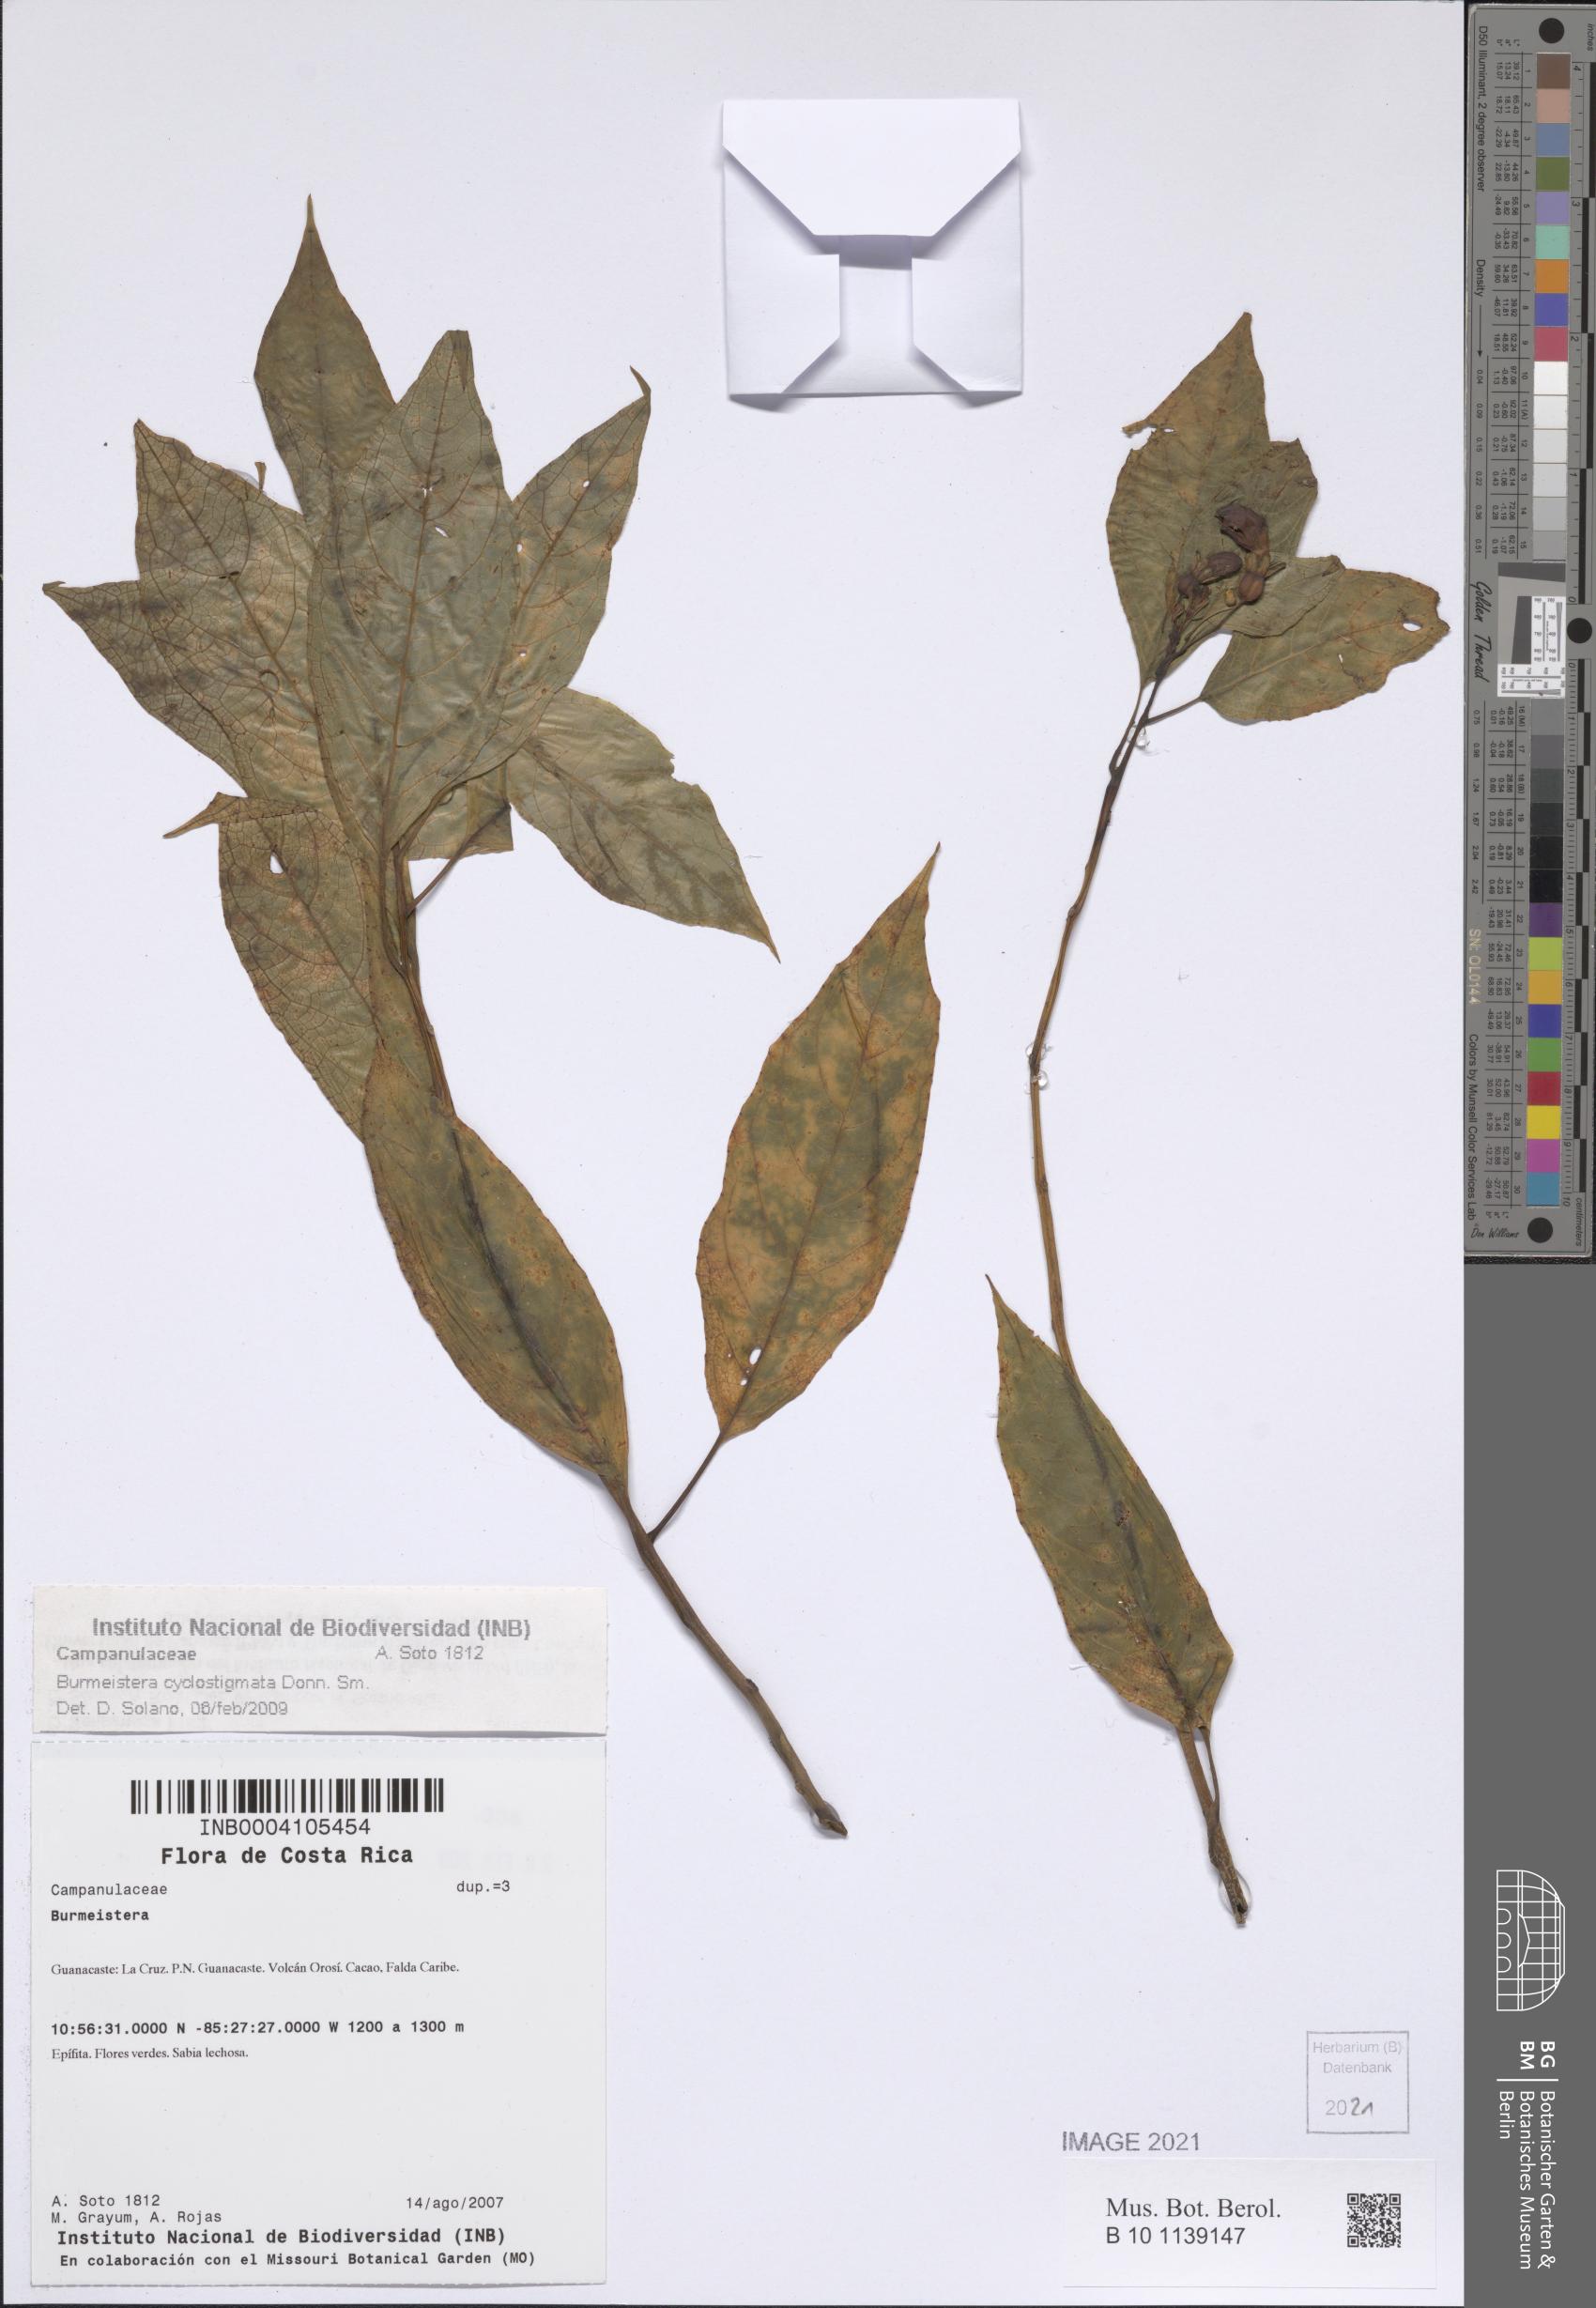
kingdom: Plantae
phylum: Tracheophyta
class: Magnoliopsida
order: Asterales
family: Campanulaceae
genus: Burmeistera
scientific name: Burmeistera cyclostigmata
